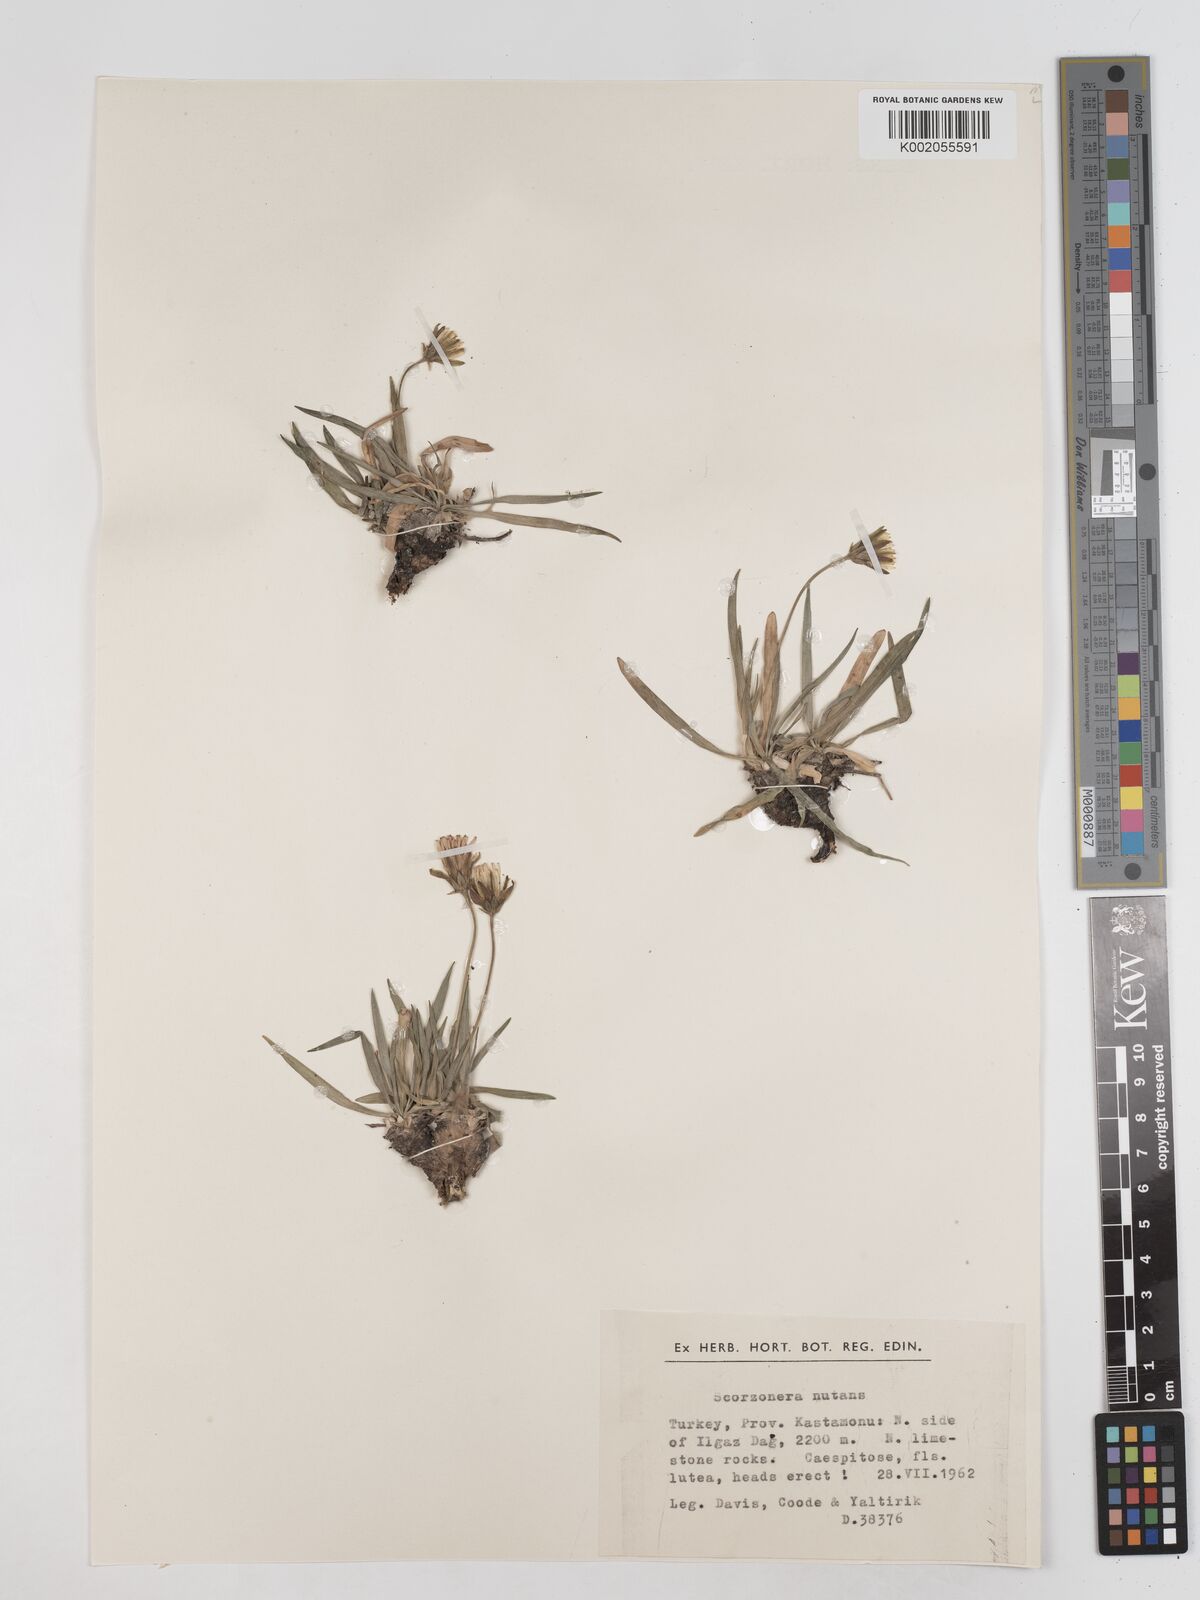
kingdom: Plantae
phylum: Tracheophyta
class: Magnoliopsida
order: Asterales
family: Asteraceae
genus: Scorzonera
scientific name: Scorzonera
